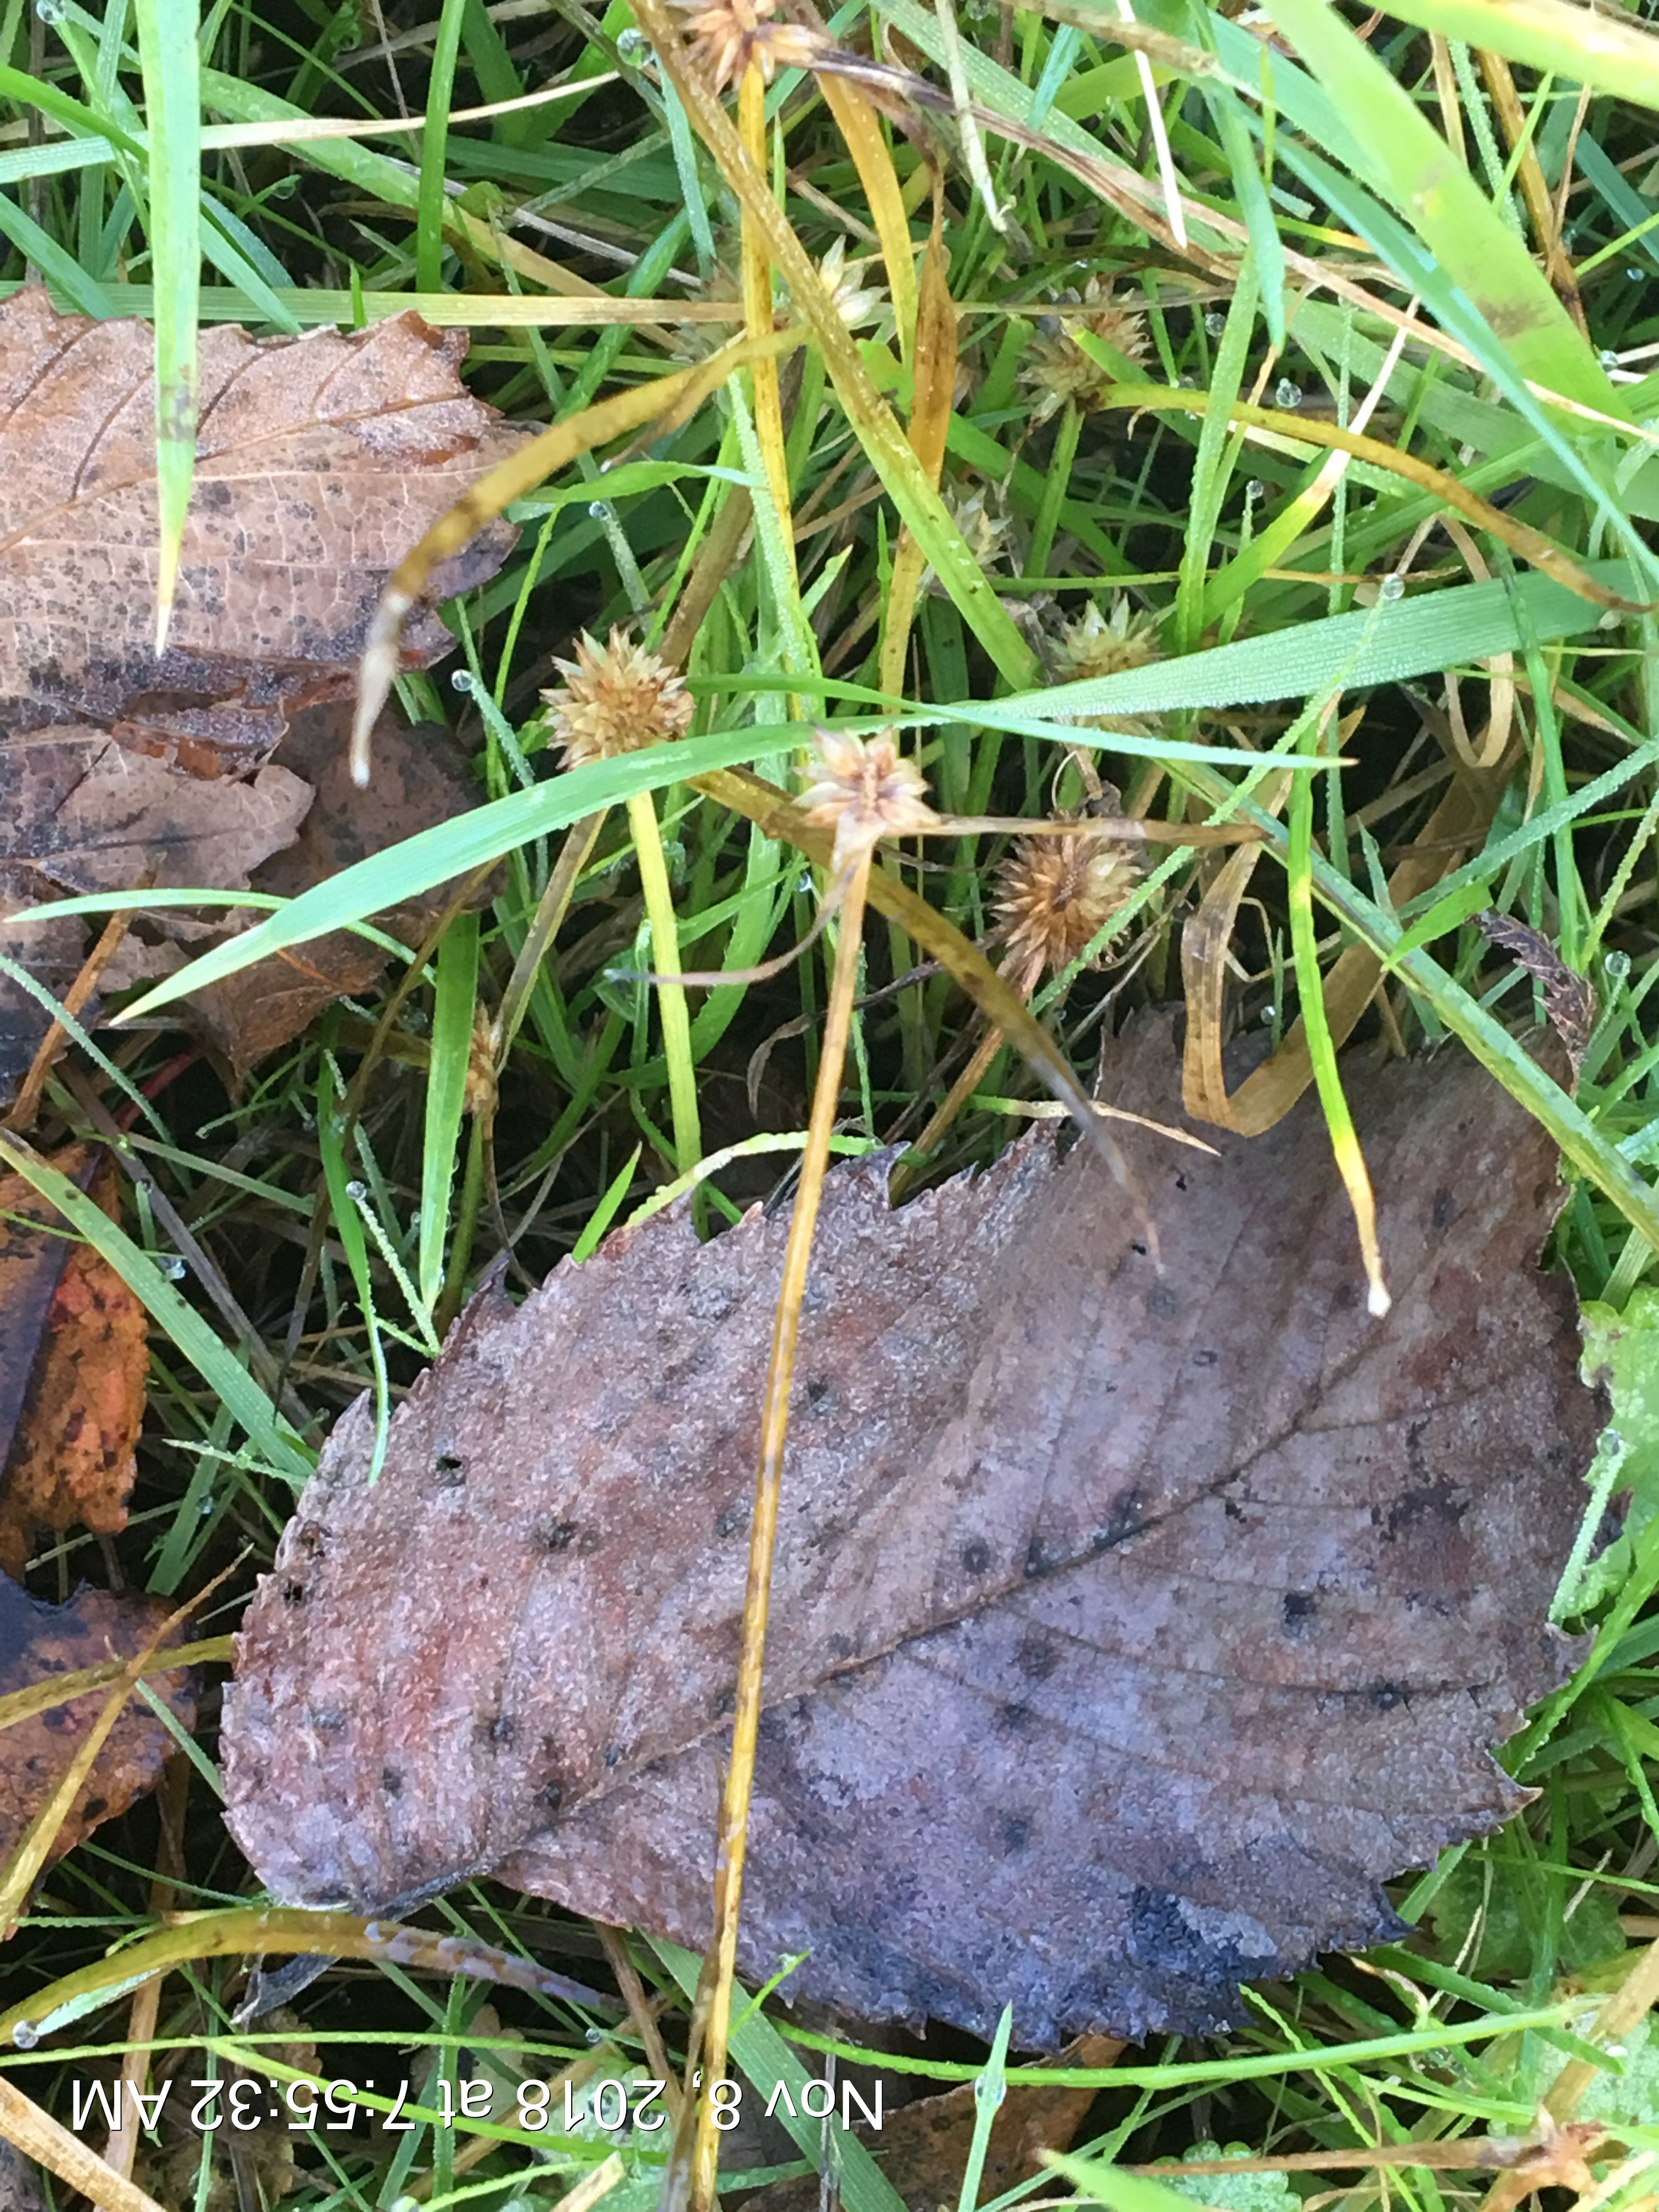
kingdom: Plantae
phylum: Tracheophyta
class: Liliopsida
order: Poales
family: Cyperaceae
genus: Cyperus
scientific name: Cyperus brevifolioides
